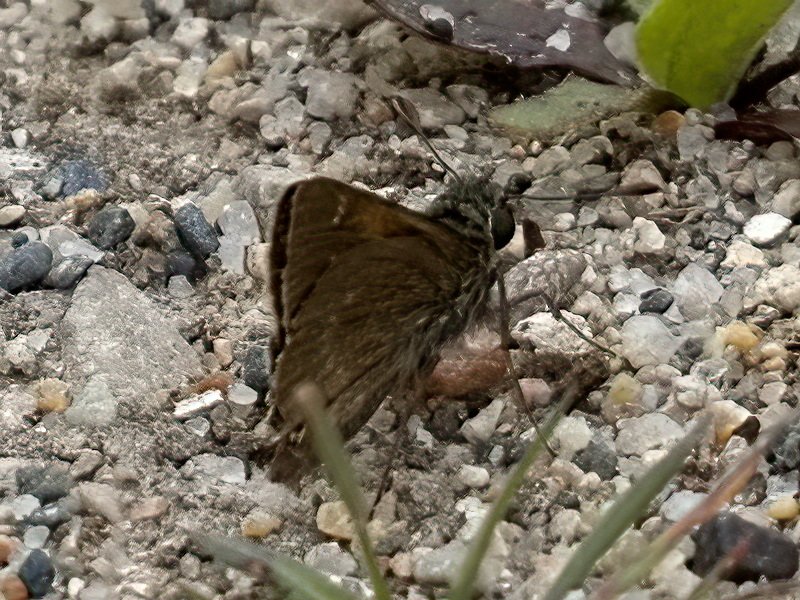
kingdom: Animalia
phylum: Arthropoda
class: Insecta
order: Lepidoptera
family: Hesperiidae
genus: Euphyes
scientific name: Euphyes vestris
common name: Dun Skipper
